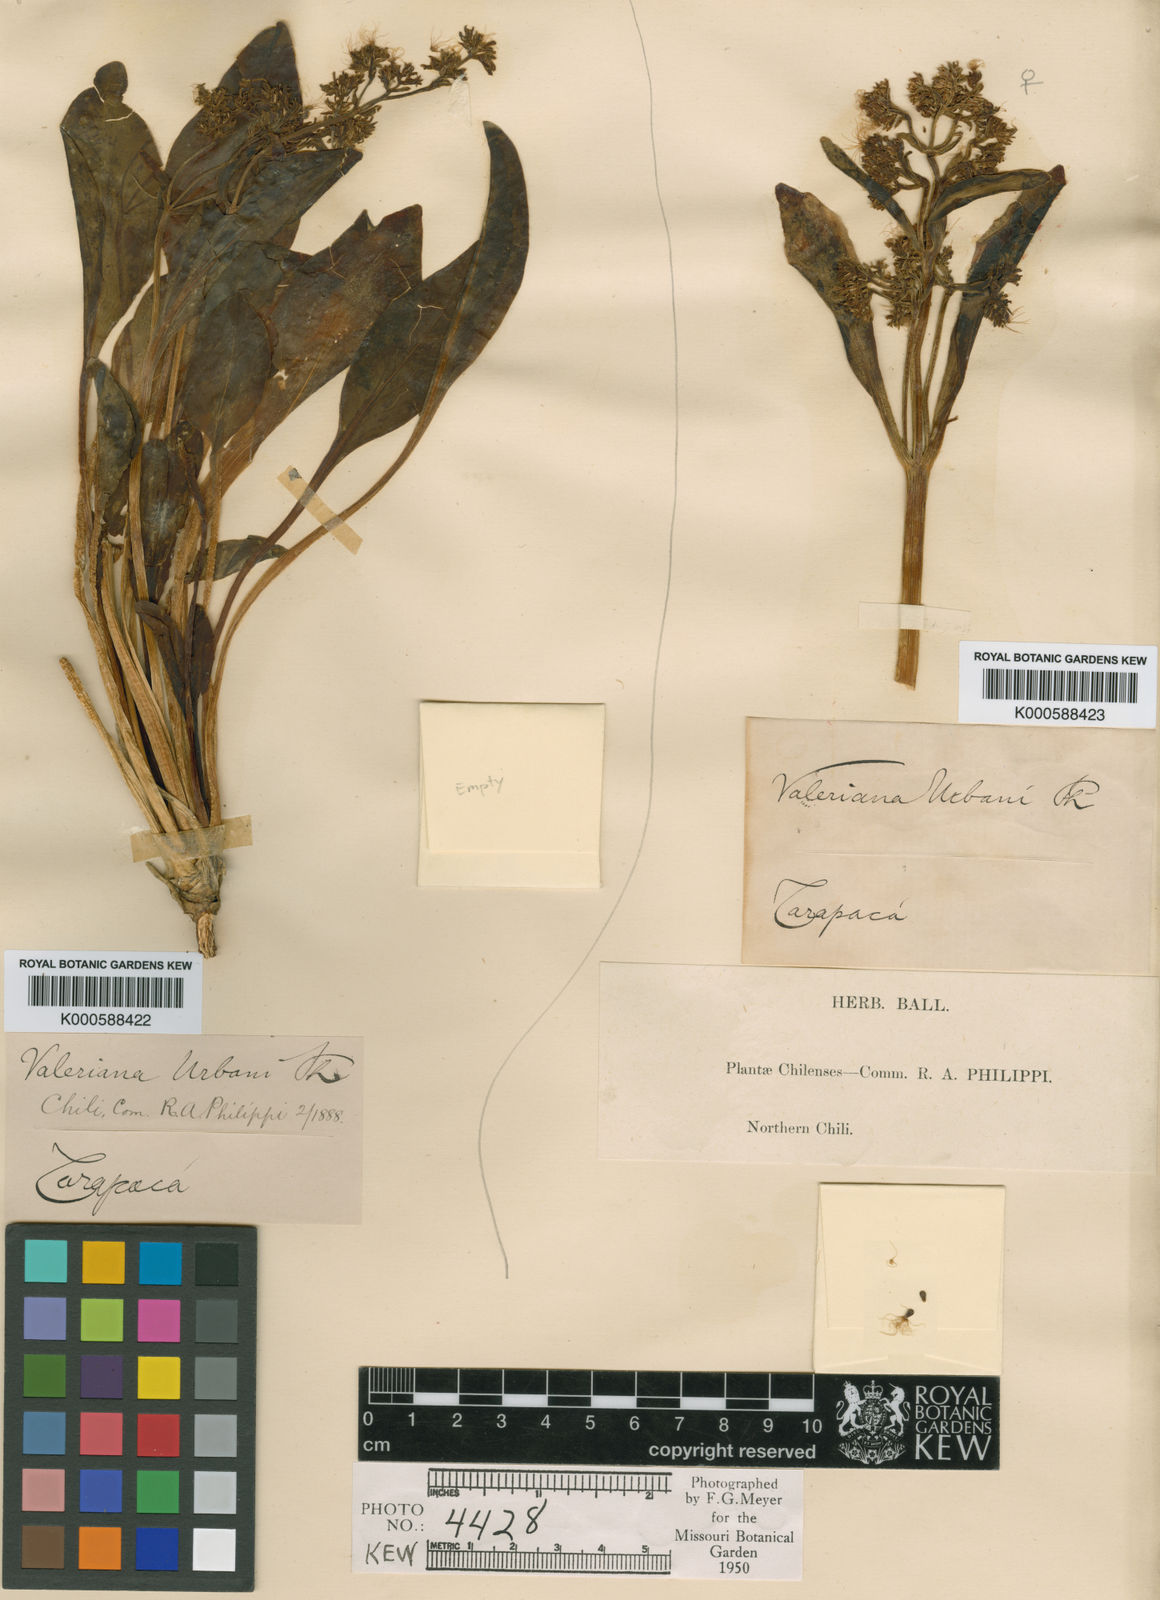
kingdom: Plantae
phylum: Tracheophyta
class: Magnoliopsida
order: Dipsacales
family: Caprifoliaceae
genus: Valeriana
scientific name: Valeriana urbani
